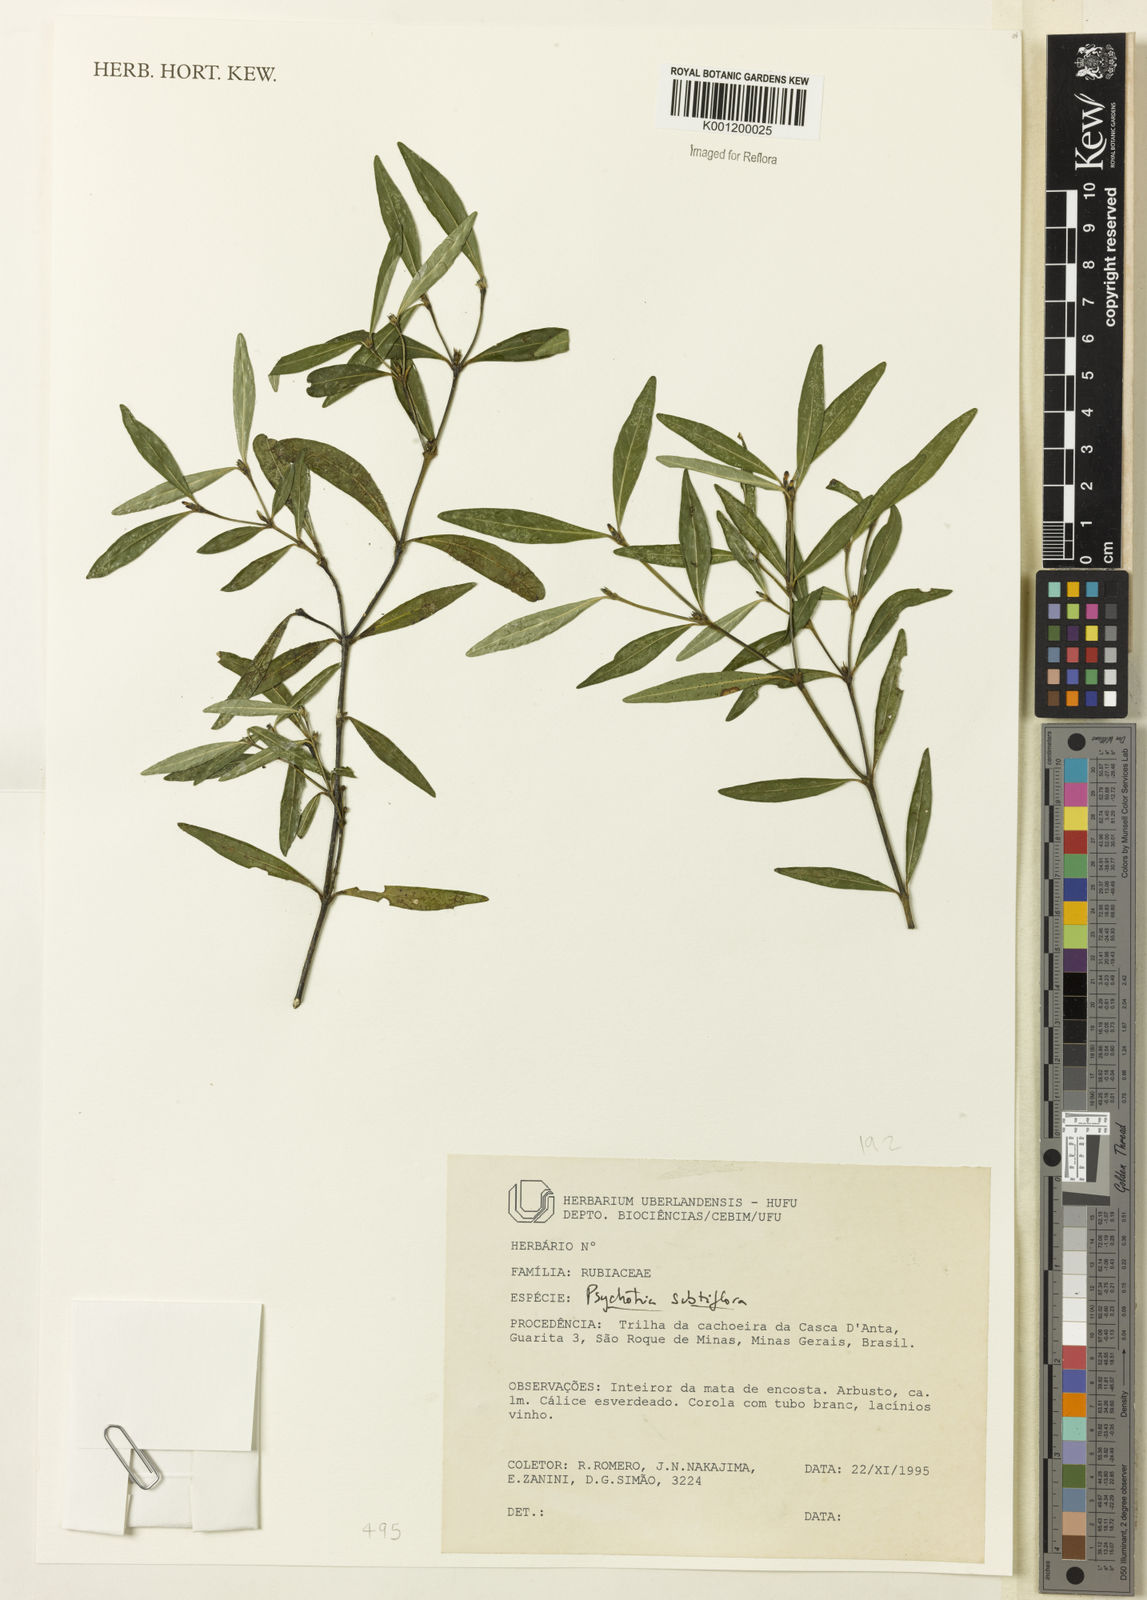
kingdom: Plantae
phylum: Tracheophyta
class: Magnoliopsida
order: Gentianales
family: Rubiaceae
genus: Psychotria
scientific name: Psychotria
